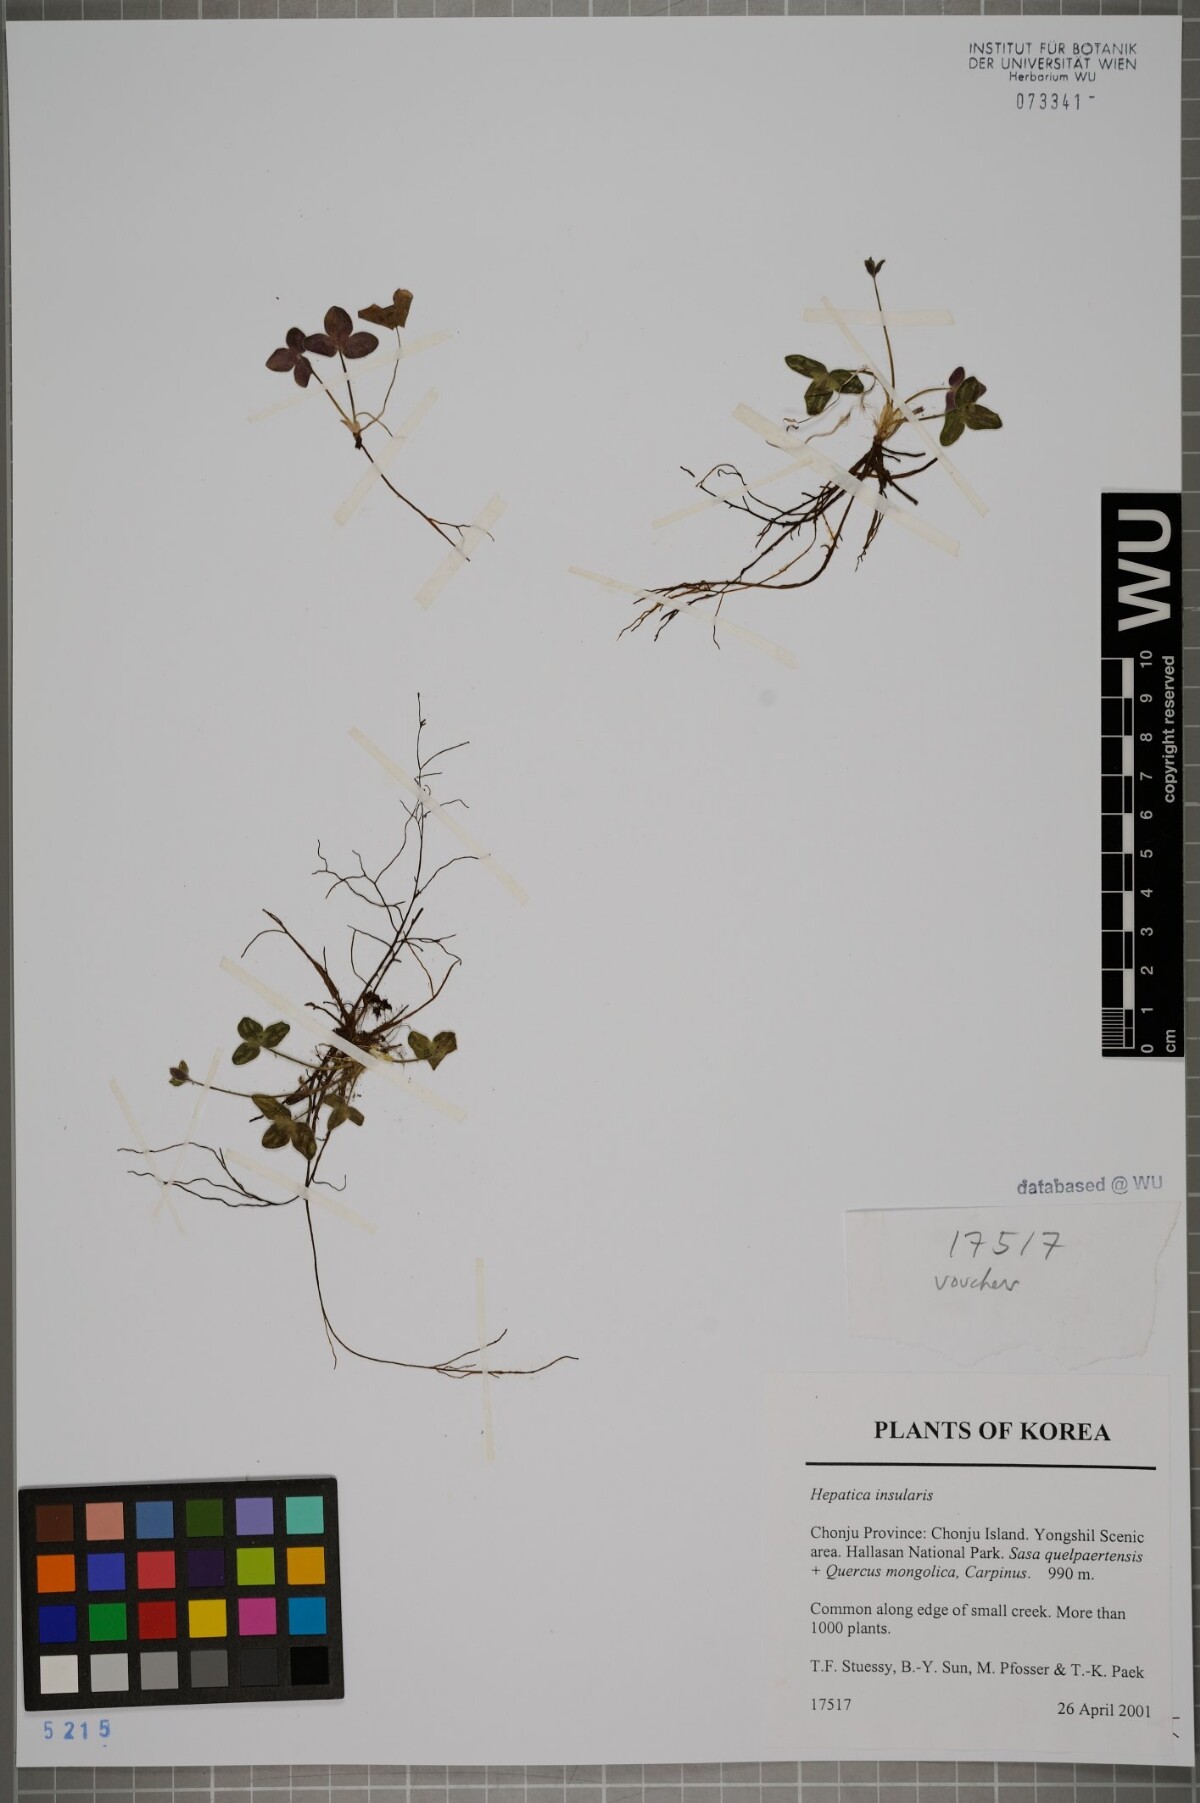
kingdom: Plantae
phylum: Tracheophyta
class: Magnoliopsida
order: Ranunculales
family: Ranunculaceae
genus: Hepatica
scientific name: Hepatica insularis
